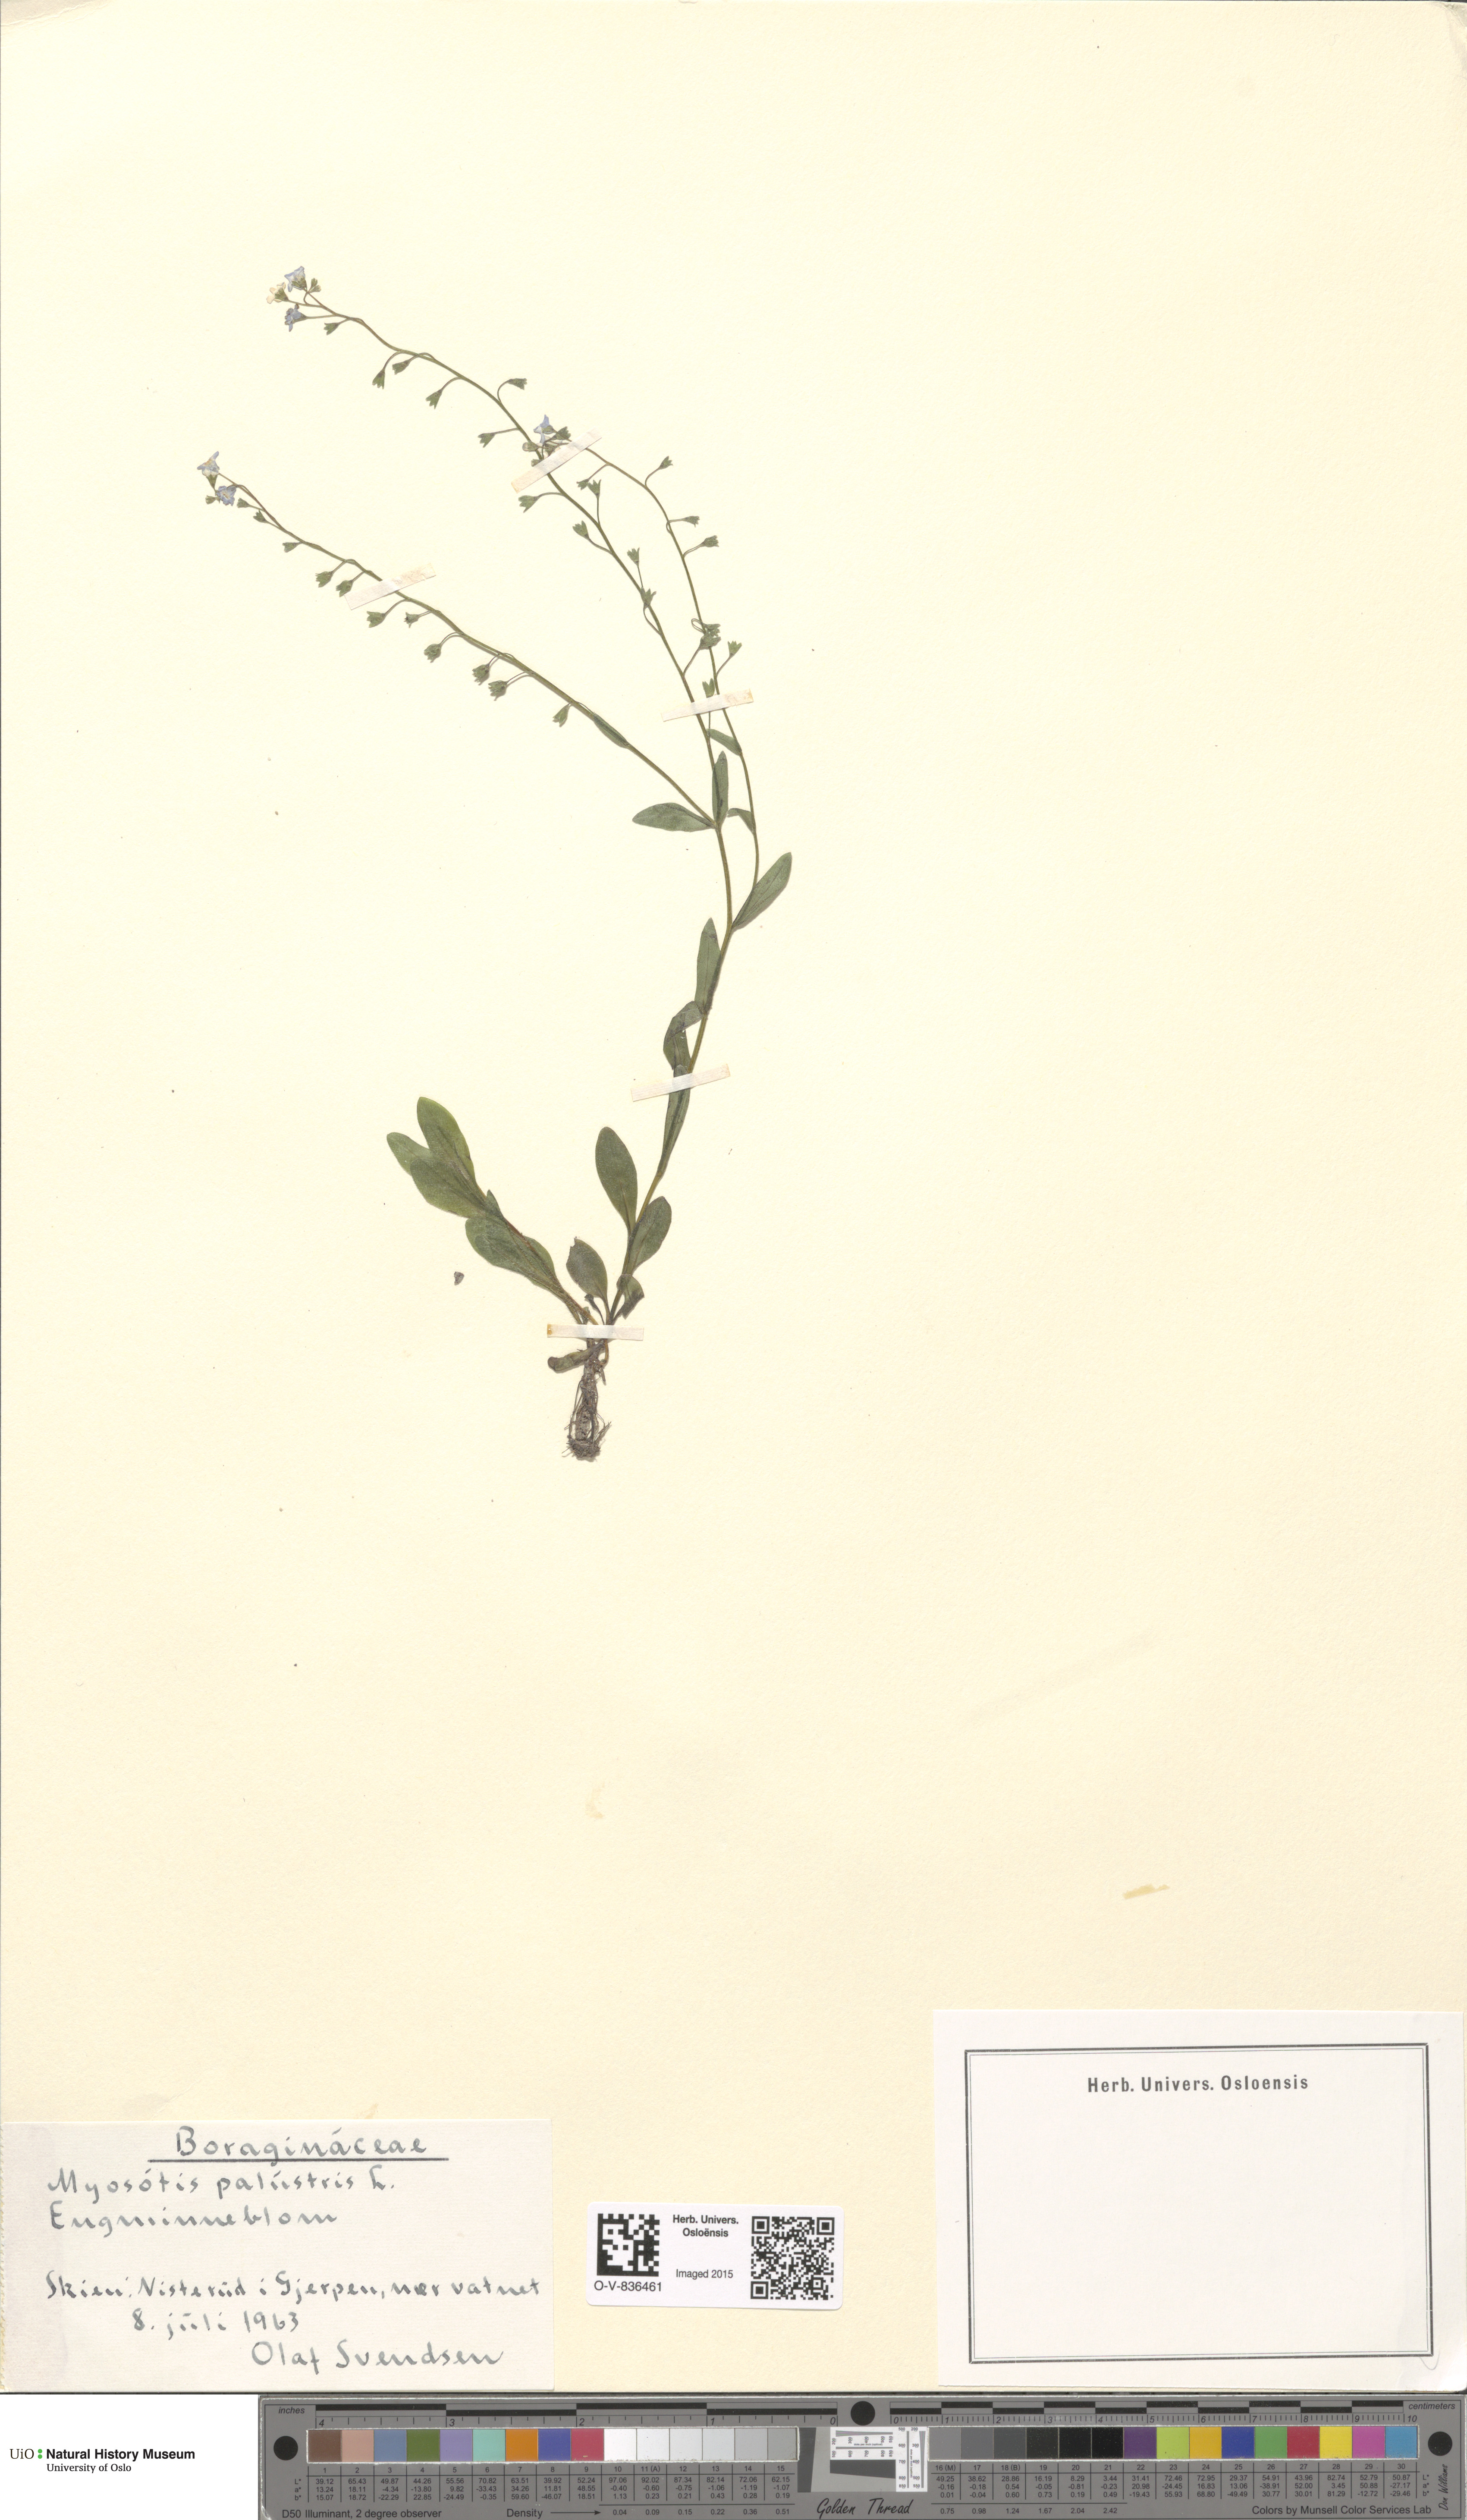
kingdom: Plantae
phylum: Tracheophyta
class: Magnoliopsida
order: Boraginales
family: Boraginaceae
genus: Myosotis
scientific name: Myosotis scorpioides
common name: Water forget-me-not
